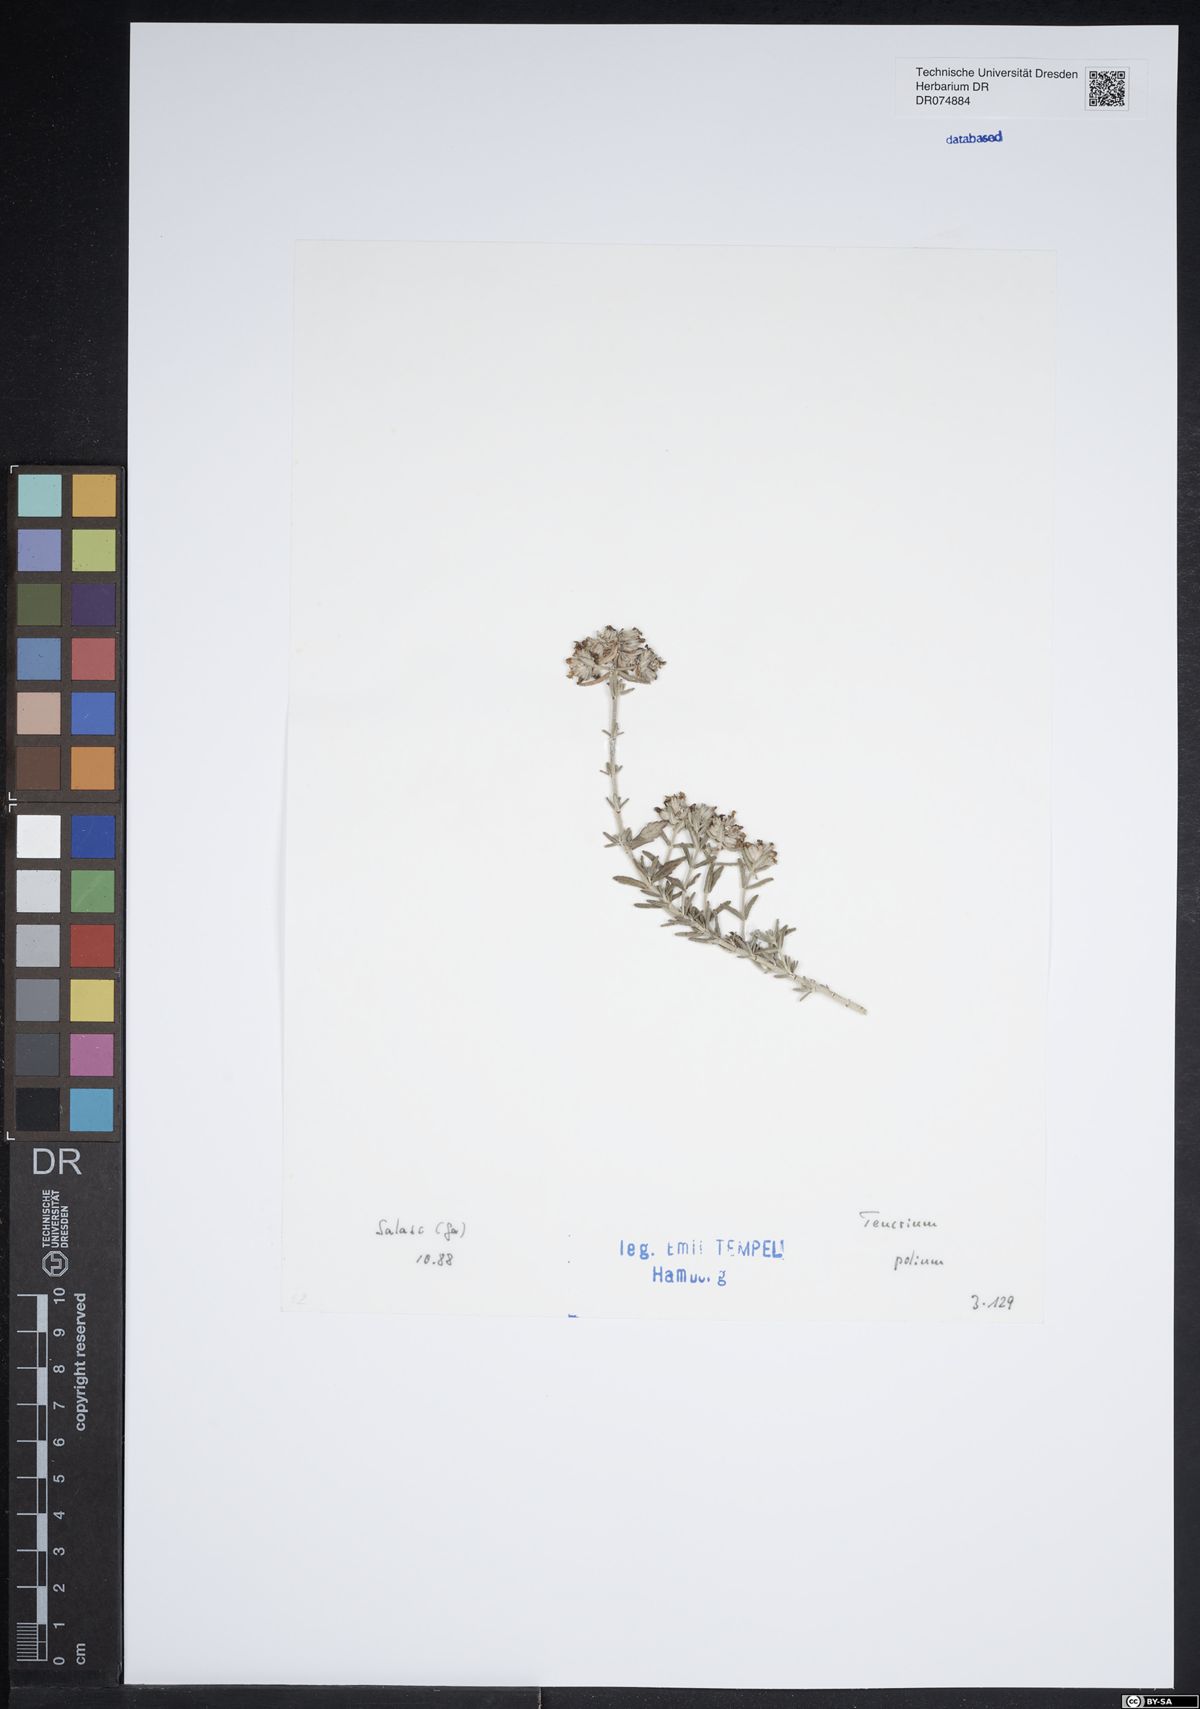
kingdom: Plantae
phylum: Tracheophyta
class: Magnoliopsida
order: Lamiales
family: Lamiaceae
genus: Teucrium
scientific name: Teucrium polium
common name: Poley
